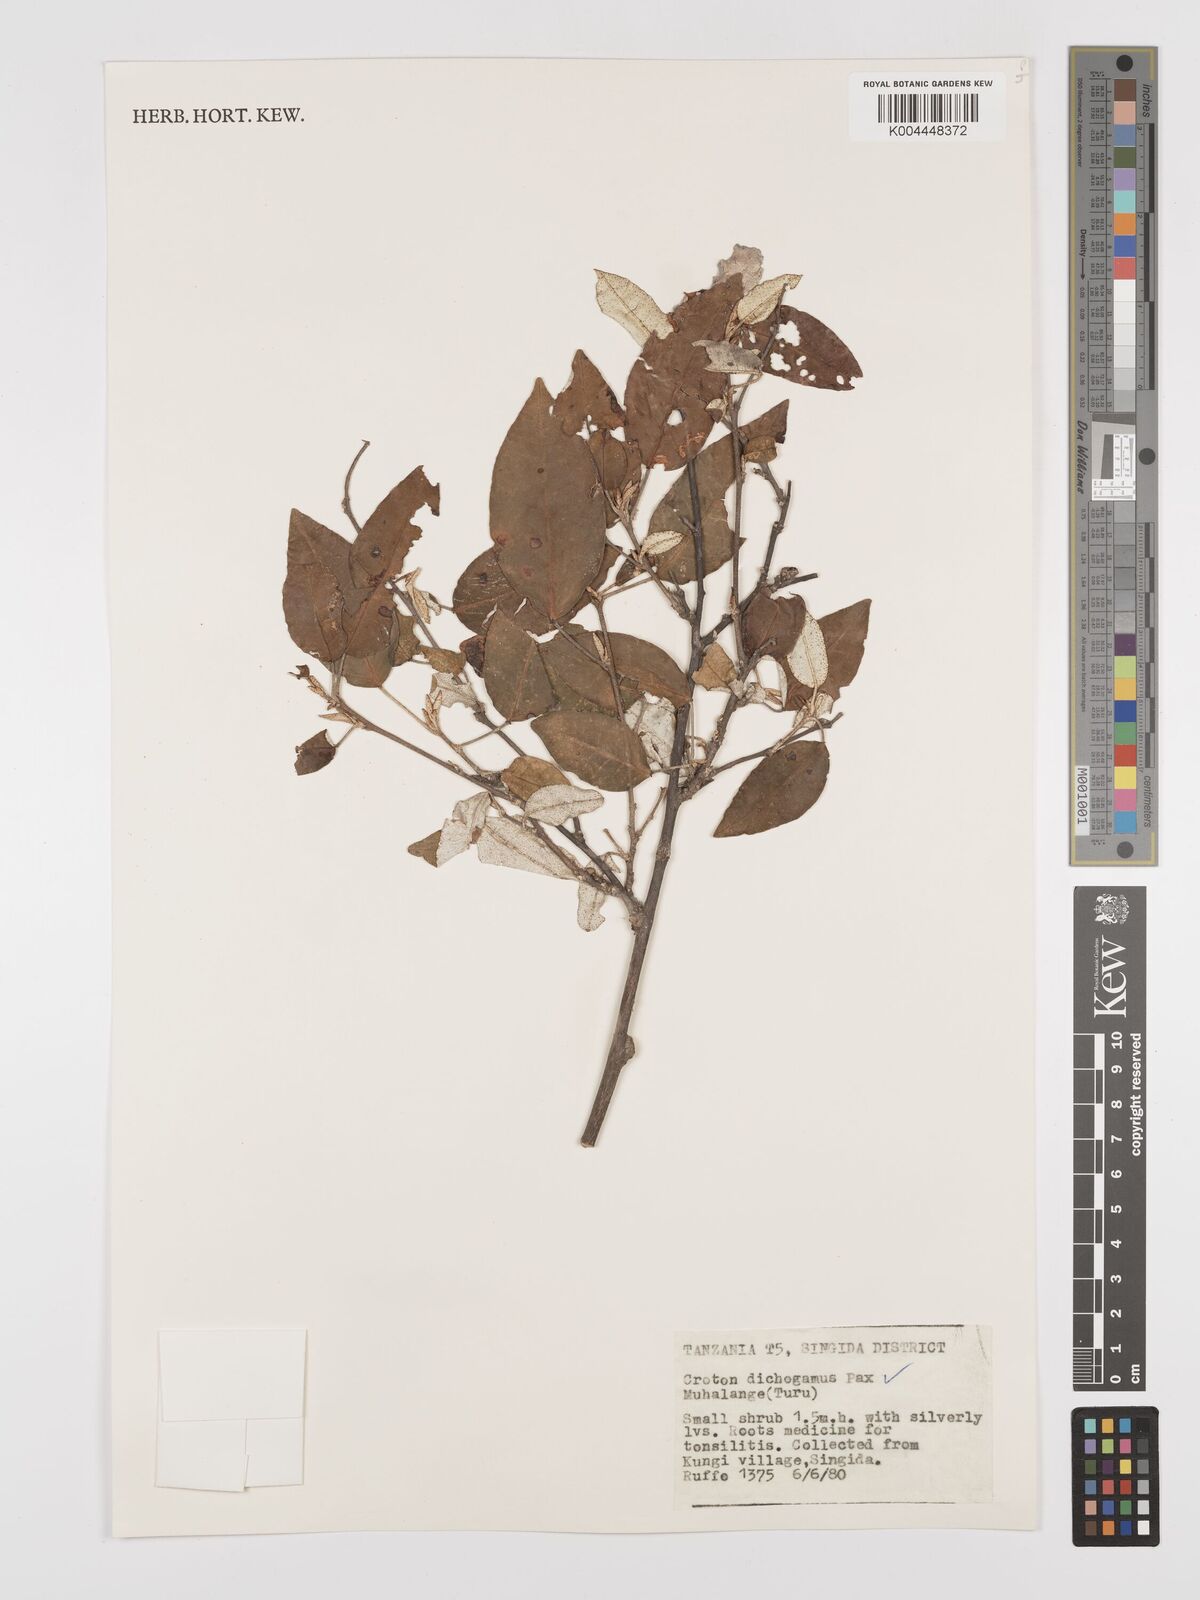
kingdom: Plantae
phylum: Tracheophyta
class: Magnoliopsida
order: Malpighiales
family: Euphorbiaceae
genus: Croton
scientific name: Croton dichogamus
